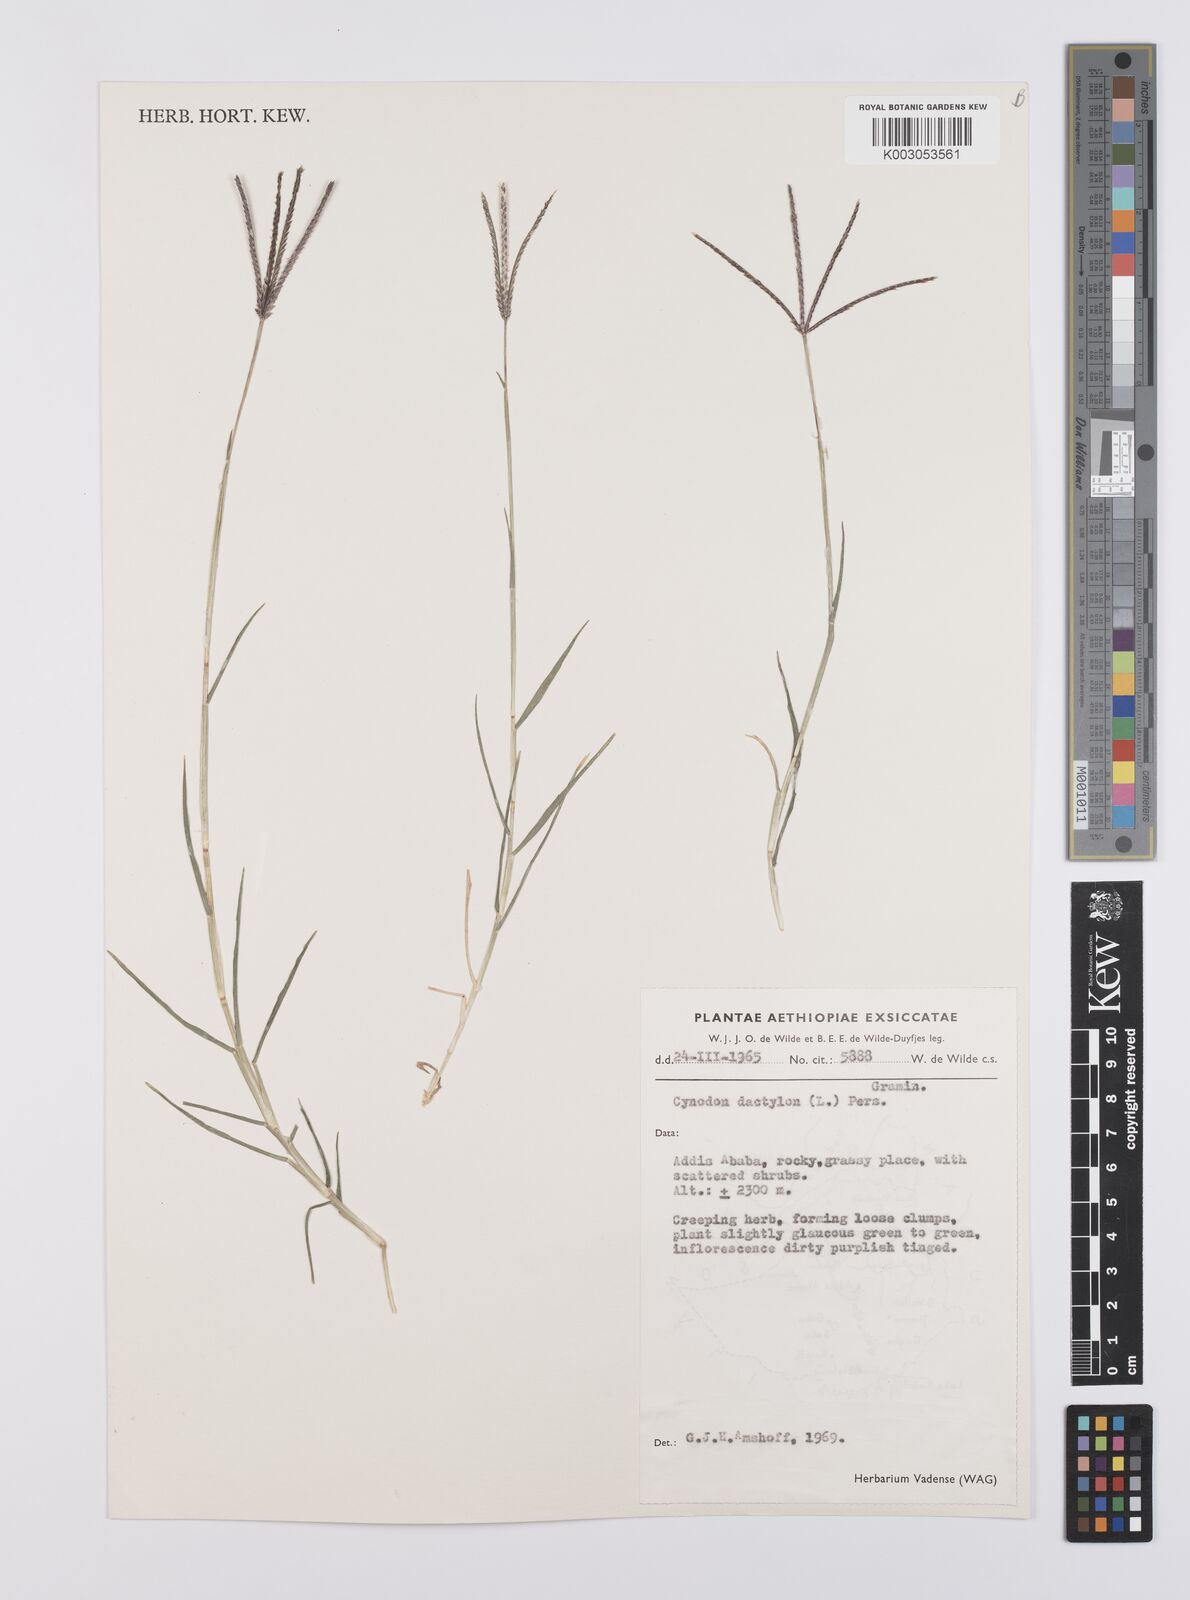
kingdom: Plantae
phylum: Tracheophyta
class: Liliopsida
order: Poales
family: Poaceae
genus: Cynodon
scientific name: Cynodon dactylon
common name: Bermuda grass
